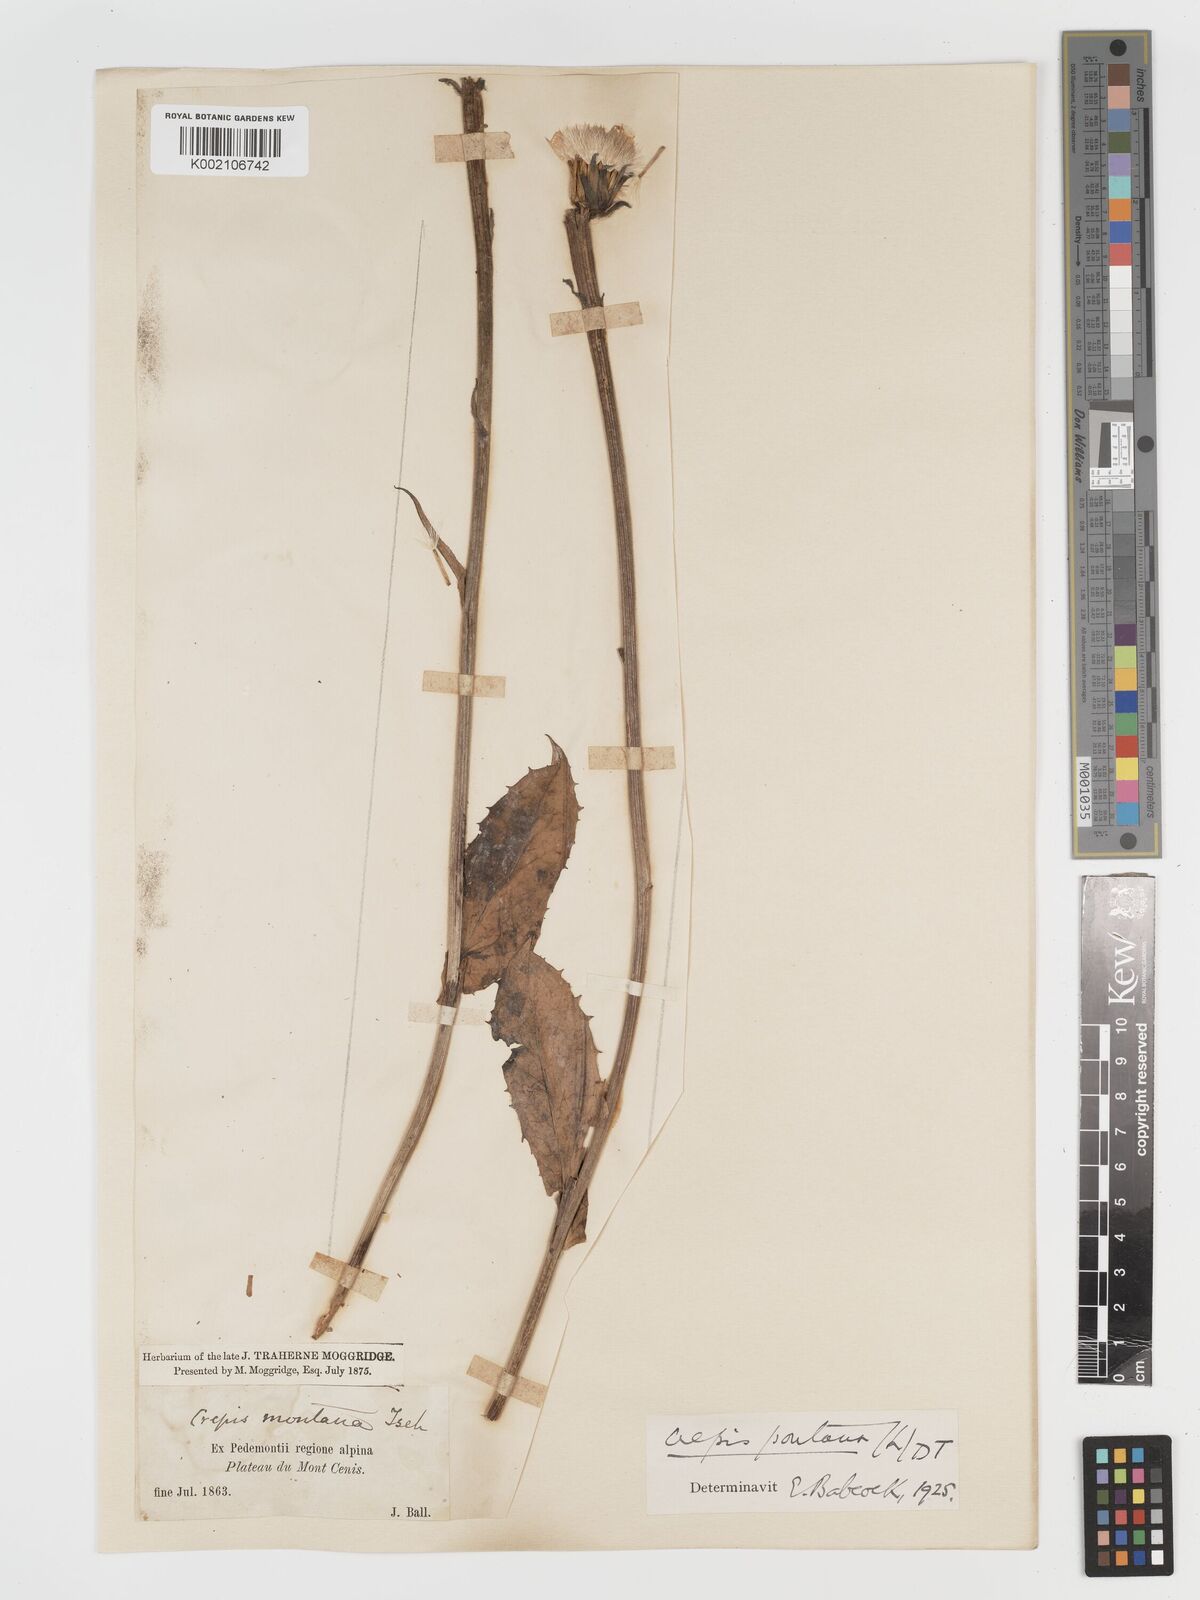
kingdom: Plantae
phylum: Tracheophyta
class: Magnoliopsida
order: Asterales
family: Asteraceae
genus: Crepis
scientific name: Crepis pontana
